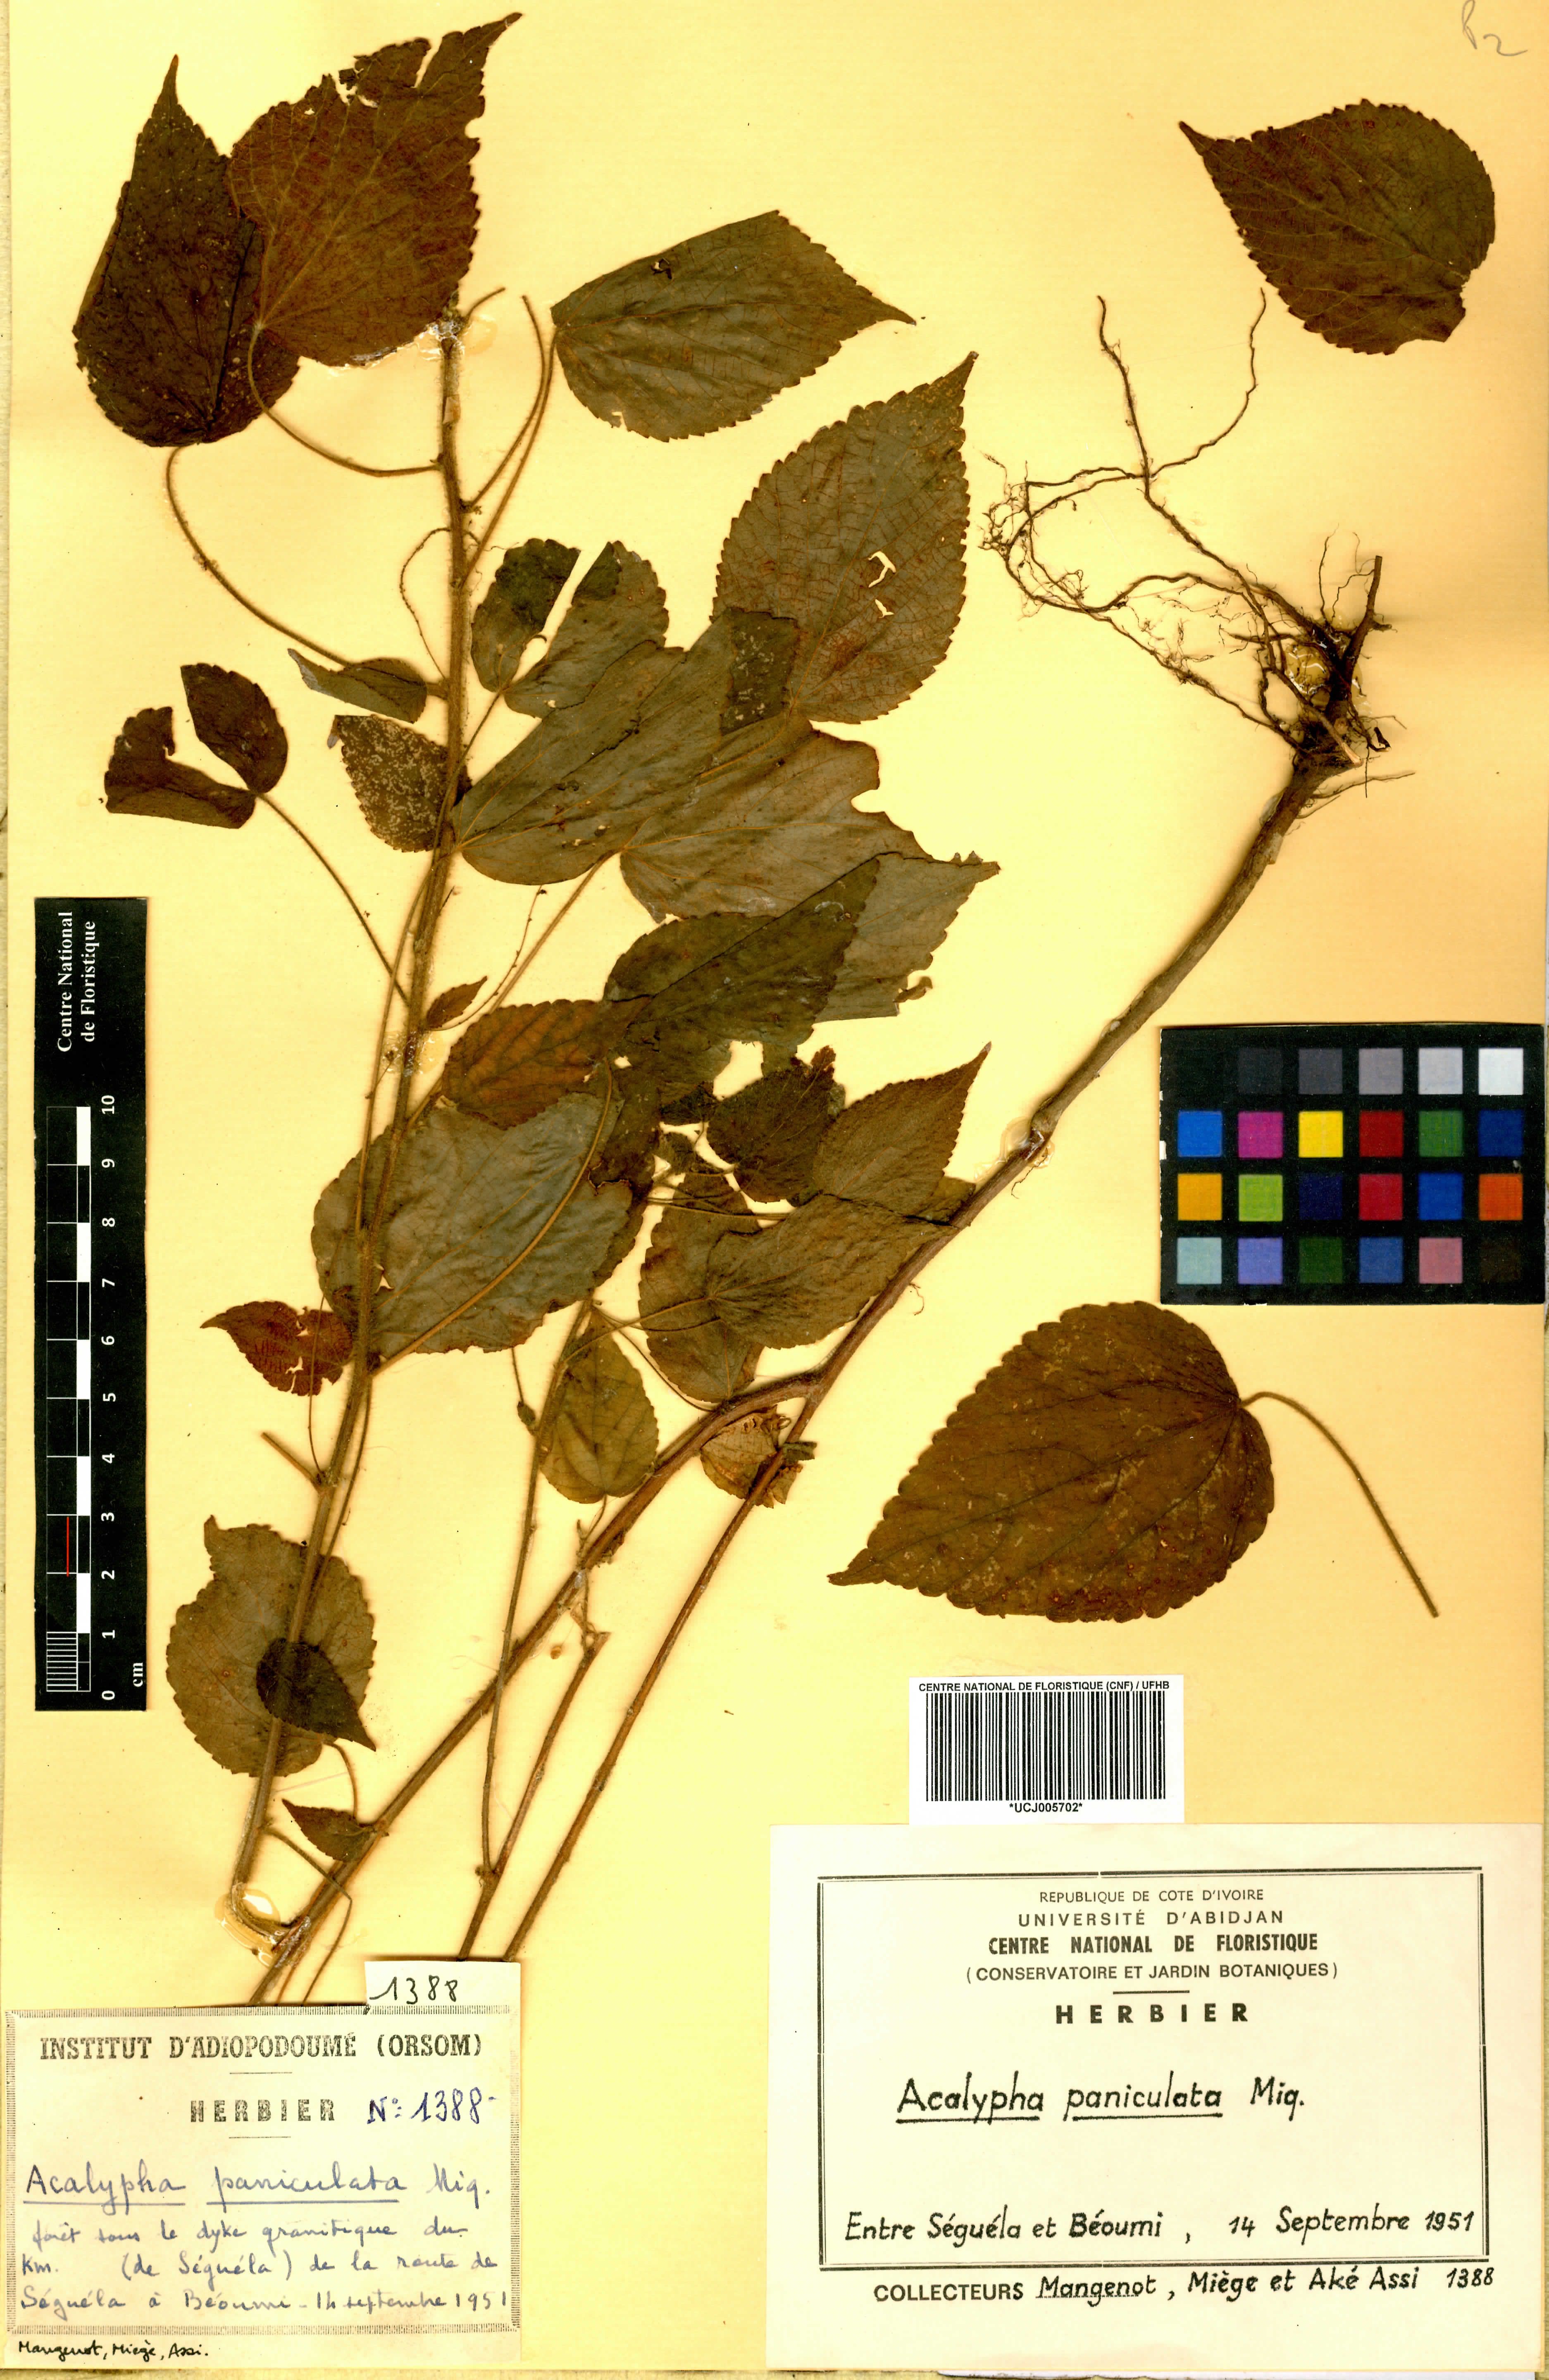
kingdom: Plantae
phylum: Tracheophyta
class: Magnoliopsida
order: Malpighiales
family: Euphorbiaceae
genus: Acalypha
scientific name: Acalypha paniculata
